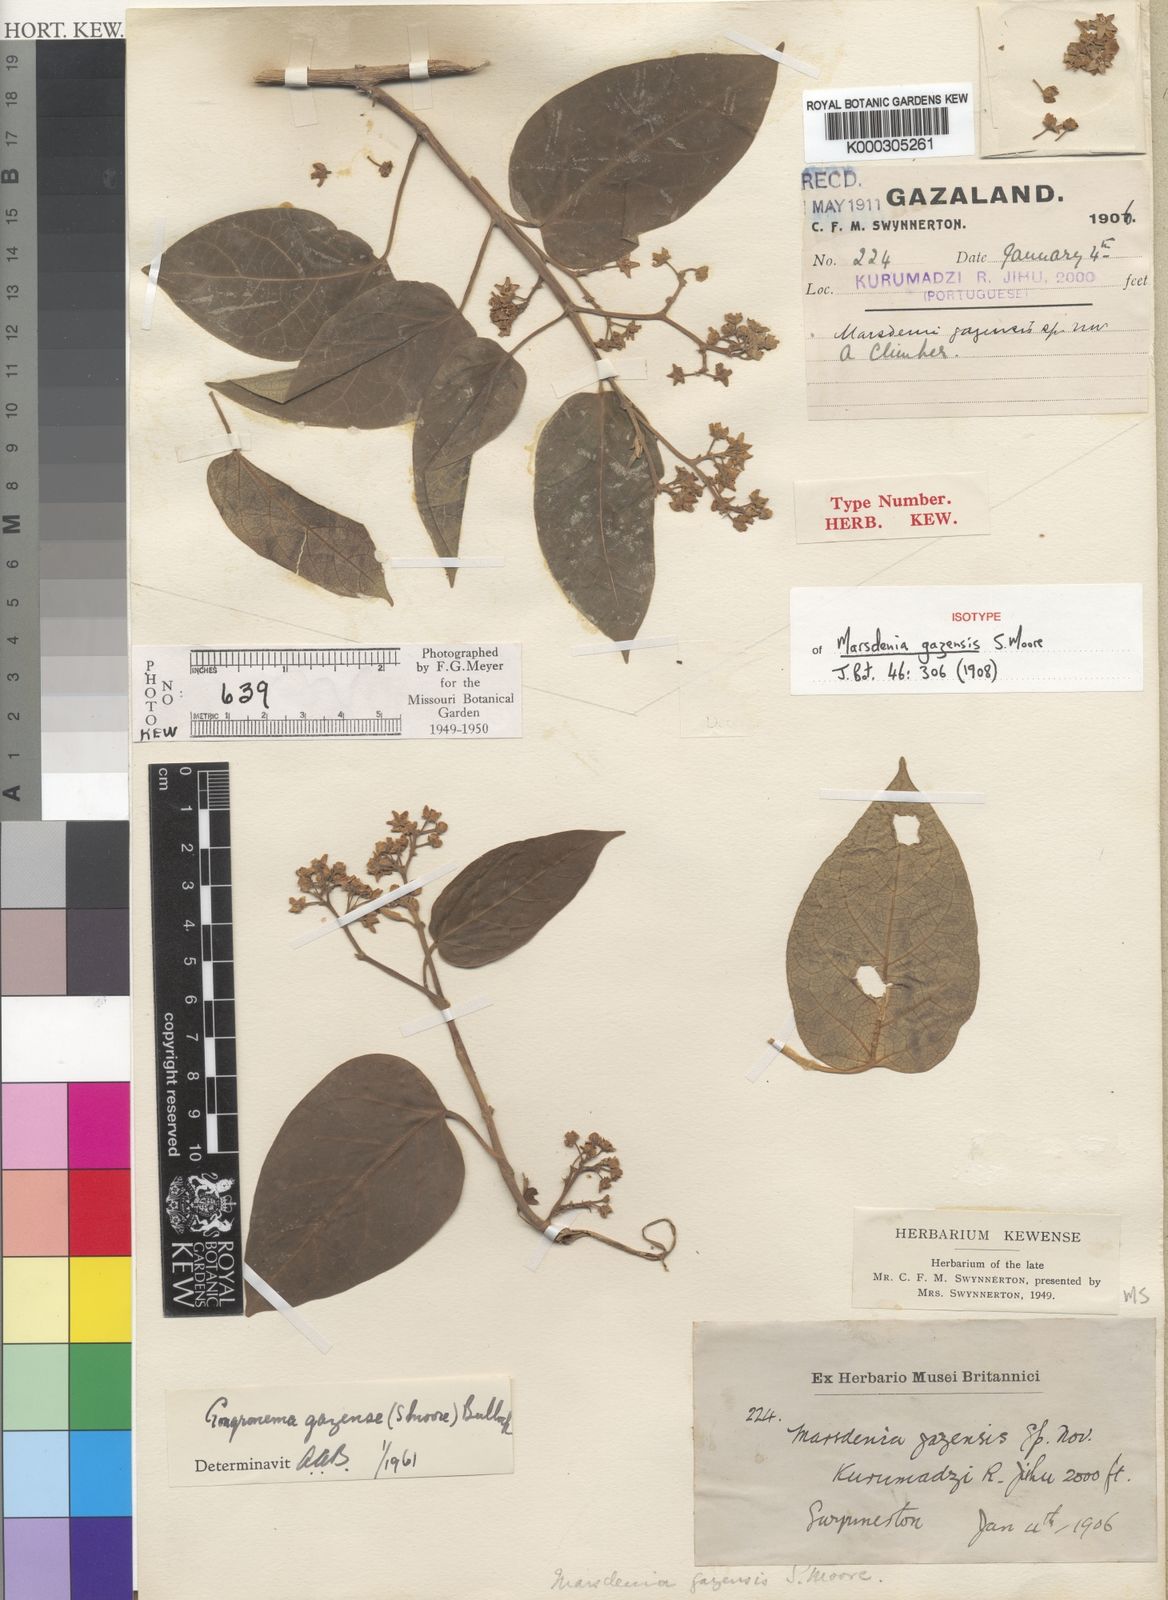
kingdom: Plantae
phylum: Tracheophyta
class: Magnoliopsida
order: Gentianales
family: Apocynaceae
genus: Gongronemopsis
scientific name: Gongronemopsis gazensis
